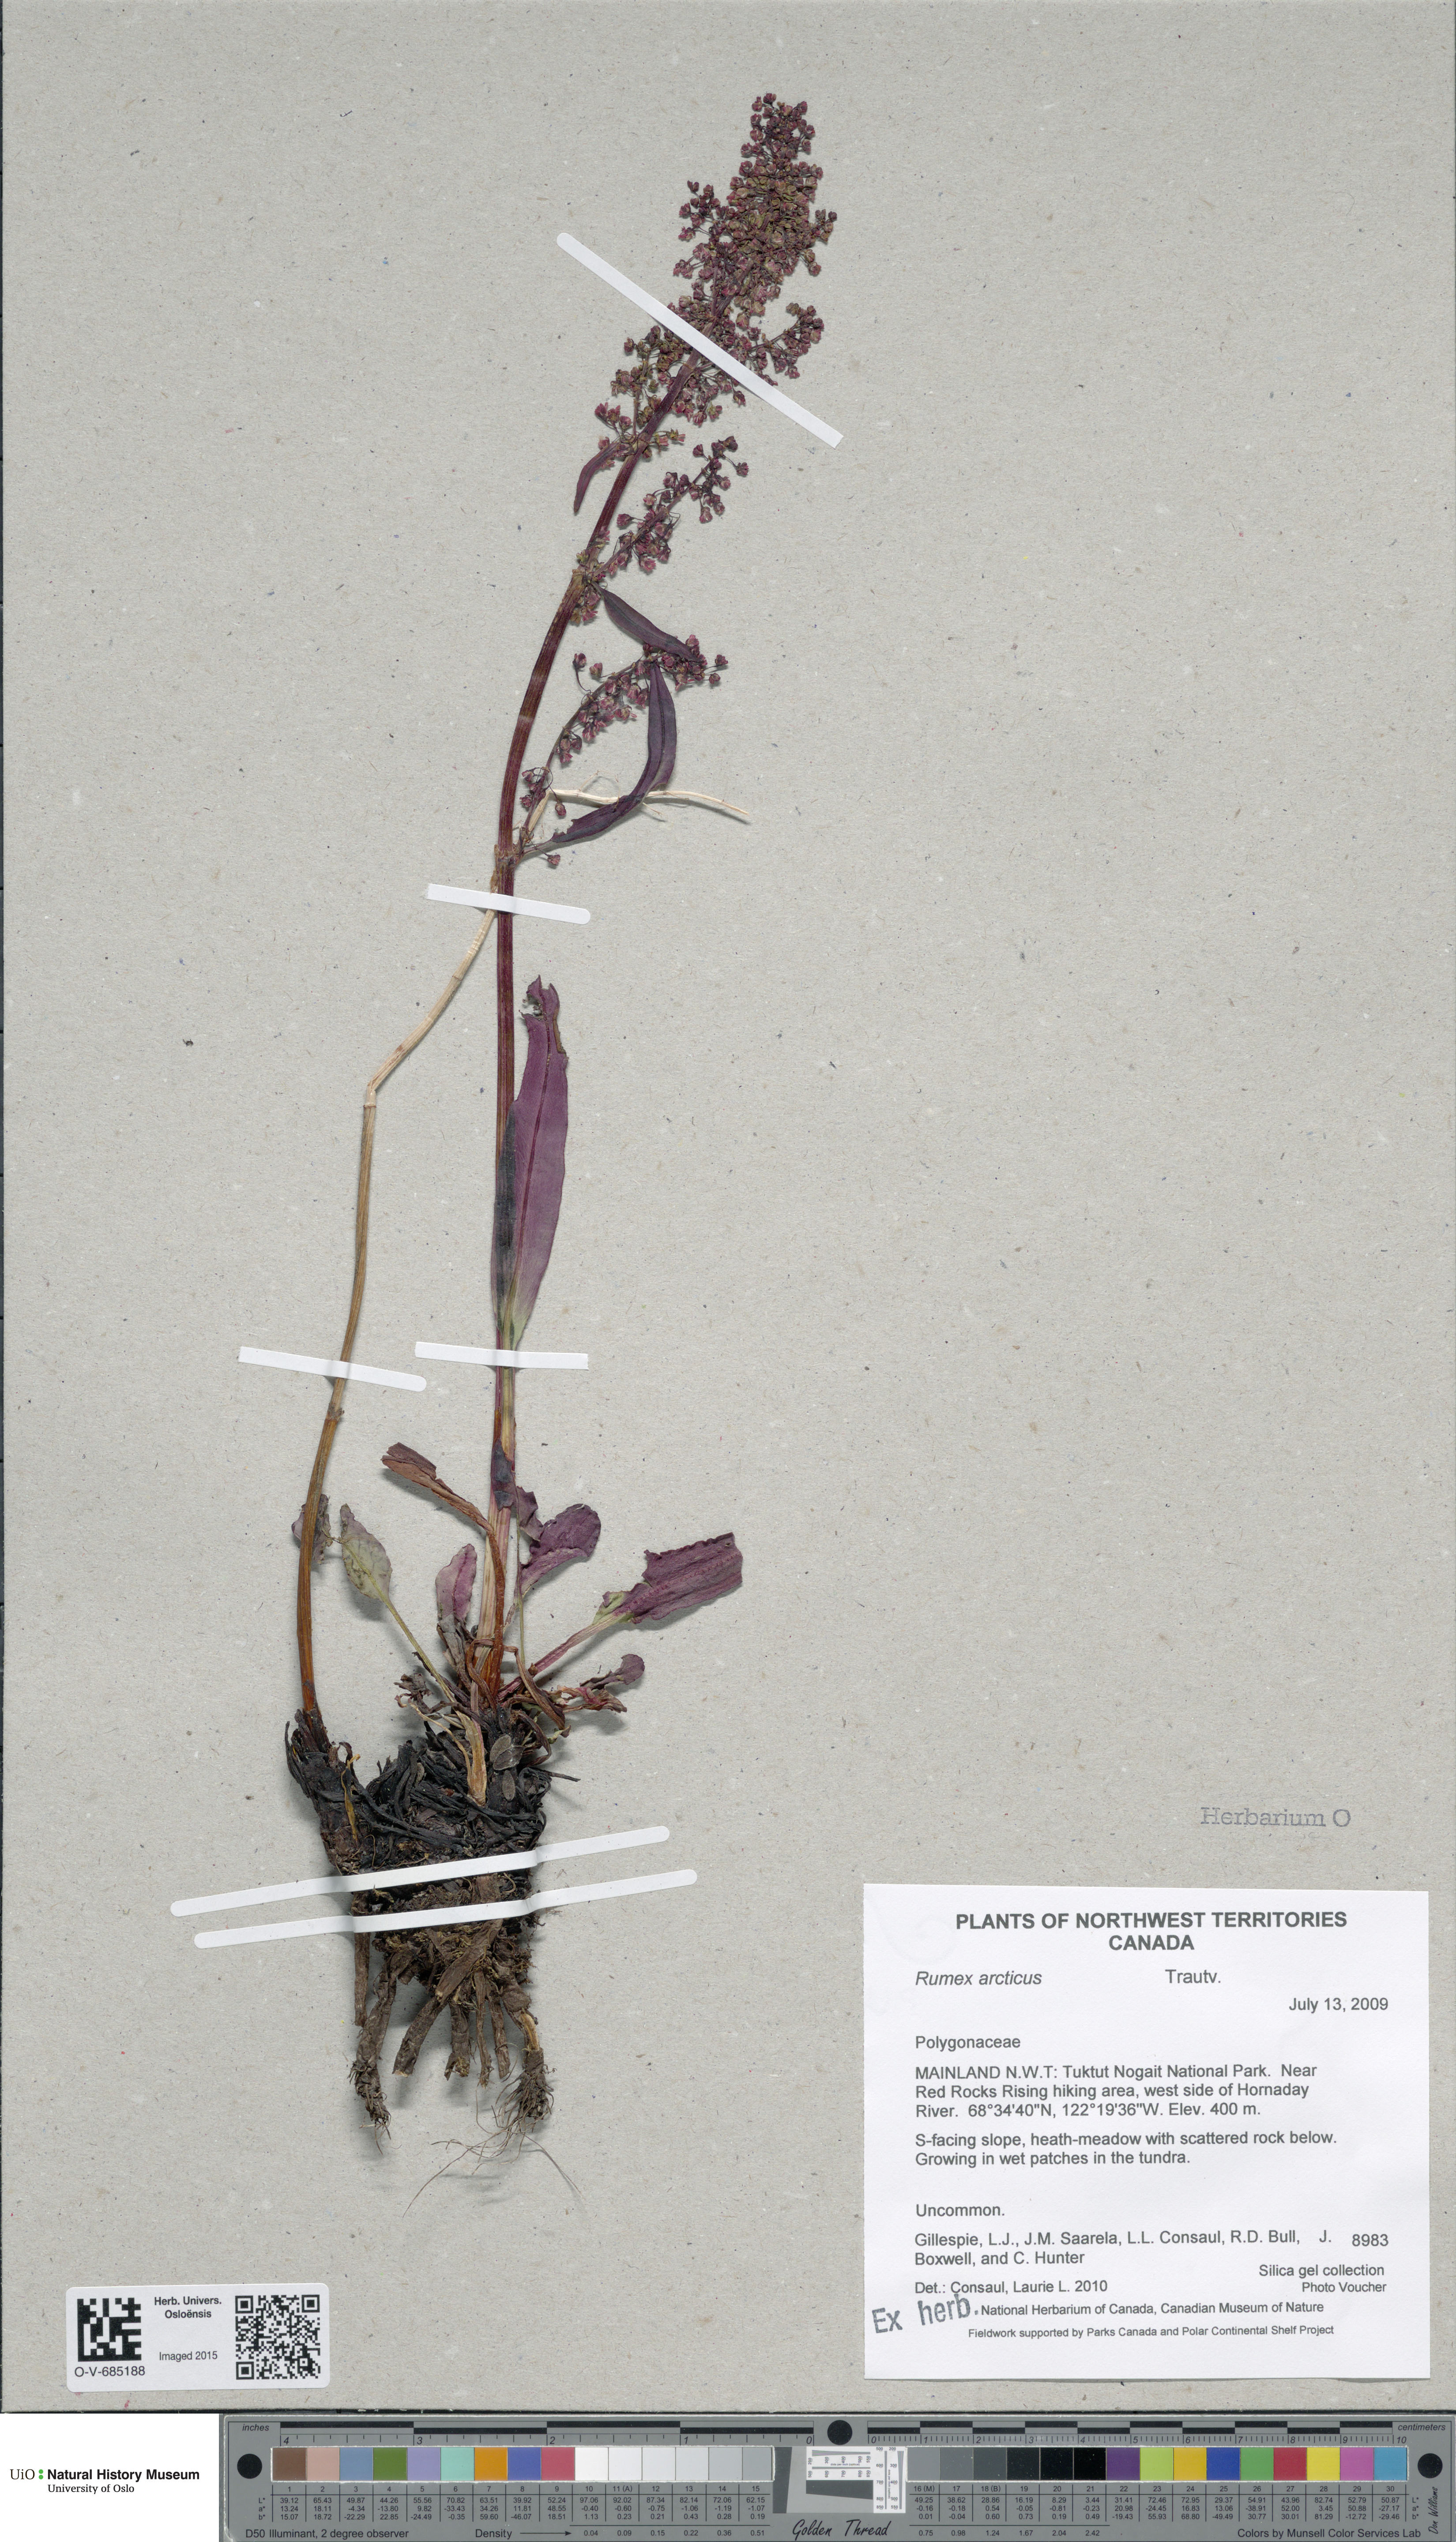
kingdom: Plantae
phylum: Tracheophyta
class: Magnoliopsida
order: Caryophyllales
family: Polygonaceae
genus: Rumex
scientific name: Rumex arcticus
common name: Arctic dock
